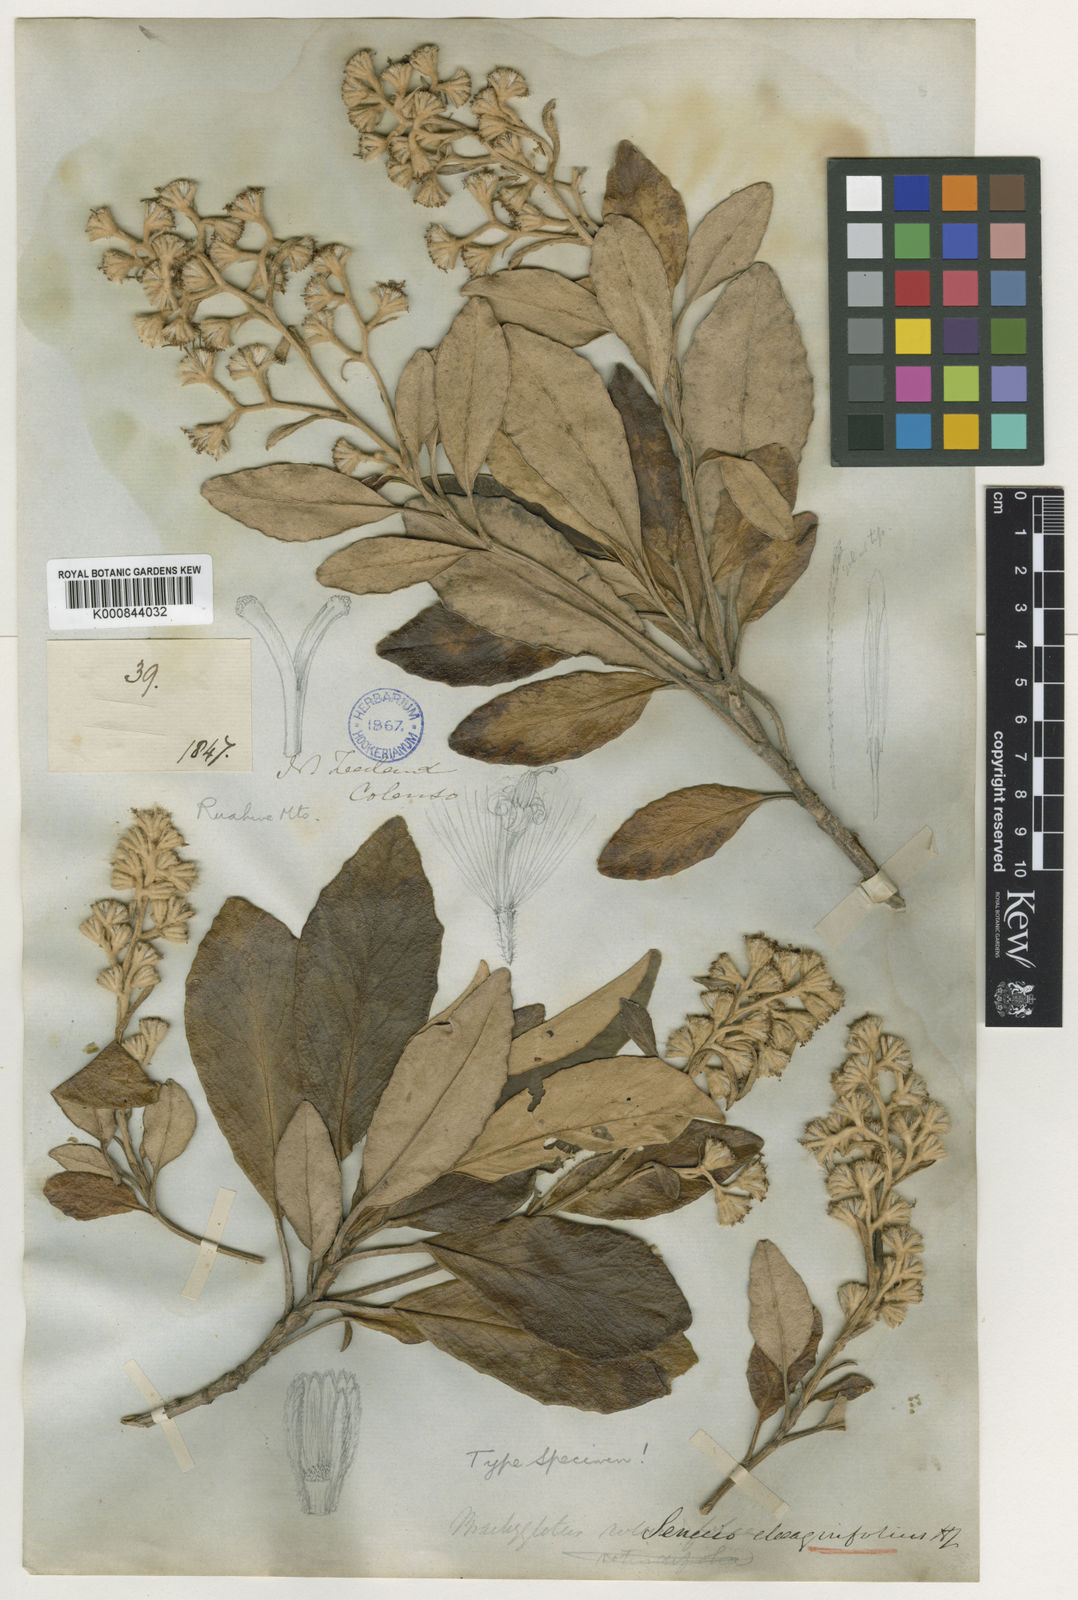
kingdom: Plantae
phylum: Tracheophyta
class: Magnoliopsida
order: Asterales
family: Asteraceae
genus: Brachyglottis
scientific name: Brachyglottis elaeagnifolia
